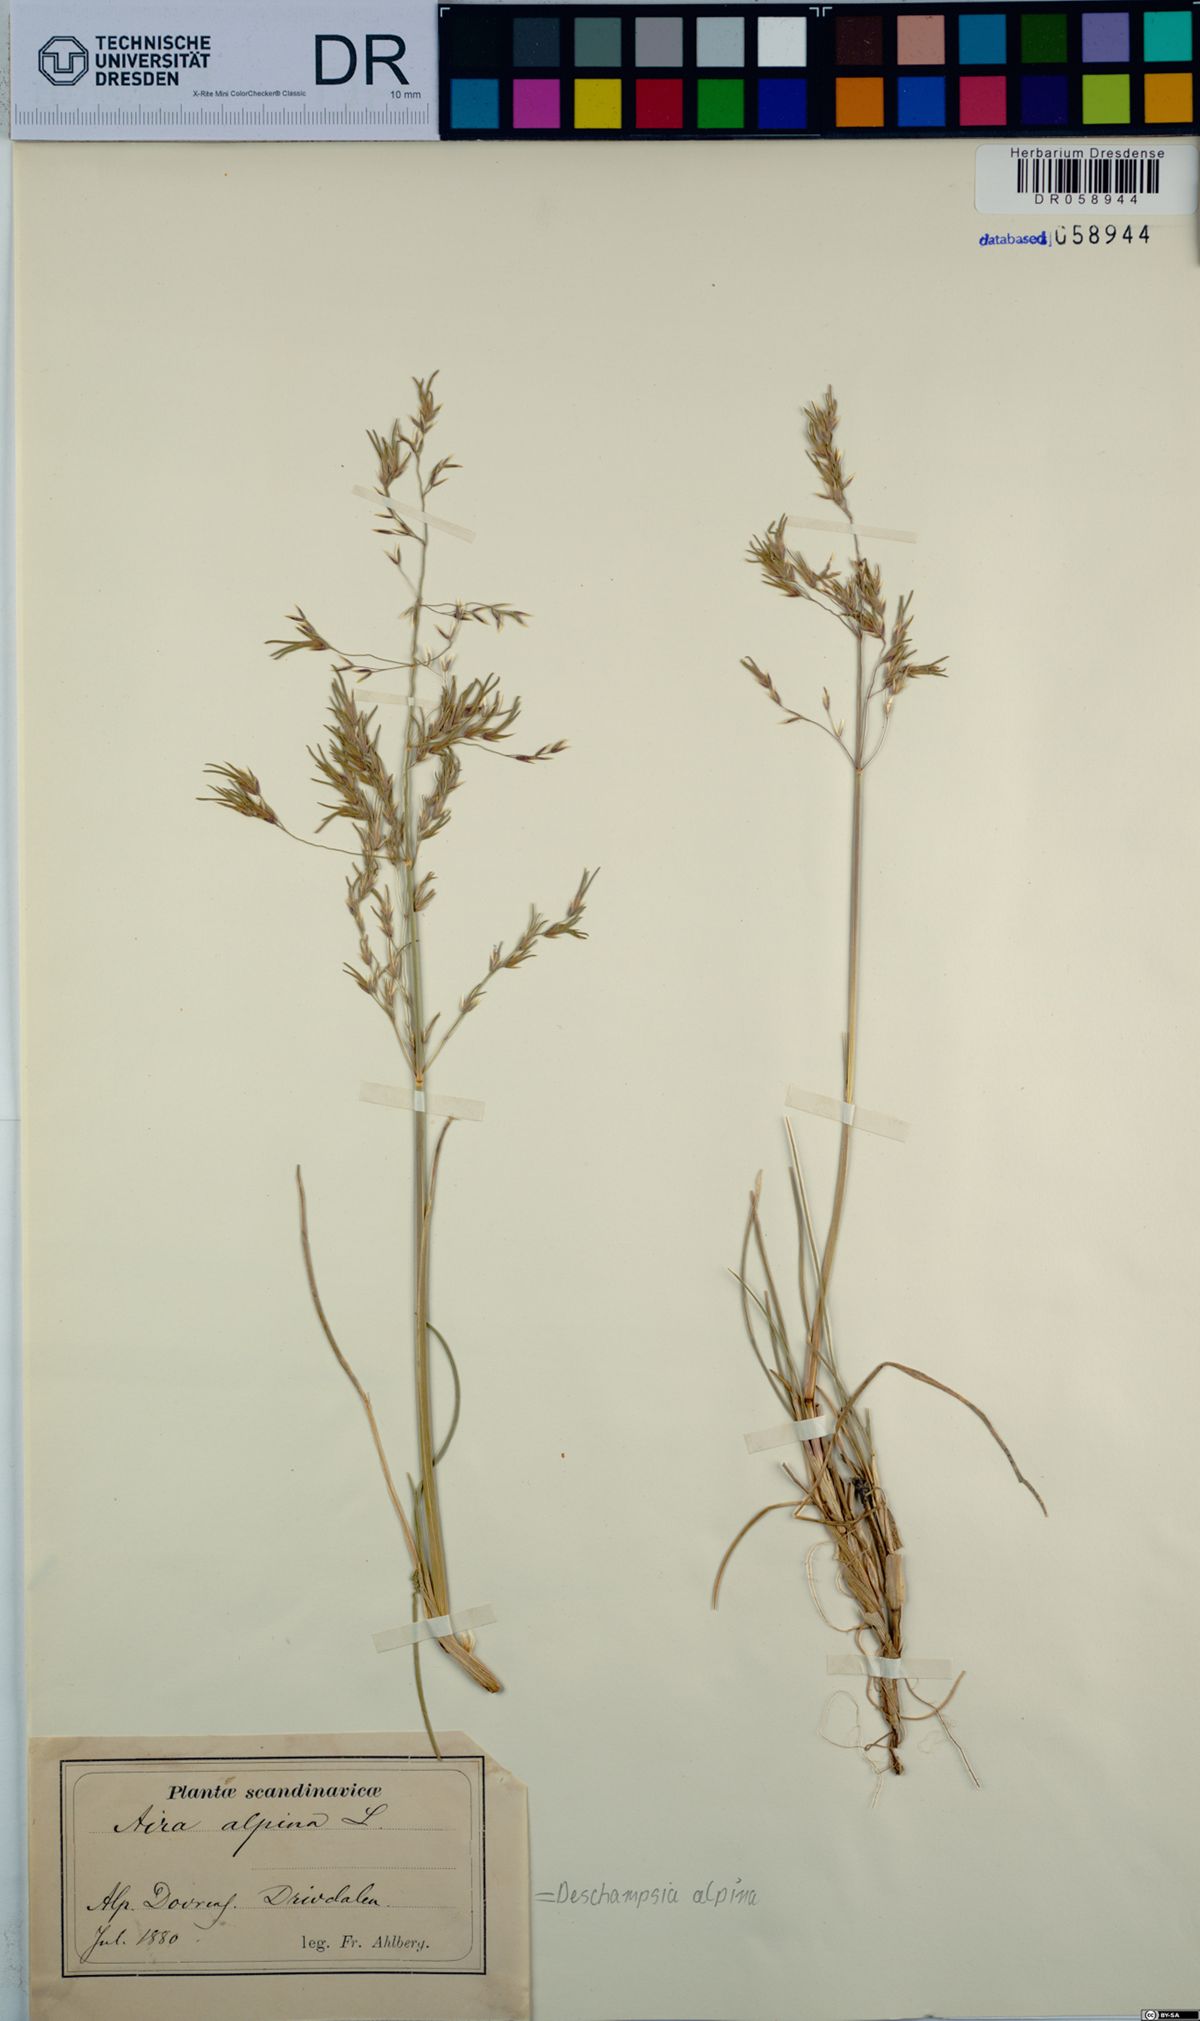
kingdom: Plantae
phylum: Tracheophyta
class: Liliopsida
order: Poales
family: Poaceae
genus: Deschampsia
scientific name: Deschampsia cespitosa
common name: Tufted hair-grass
